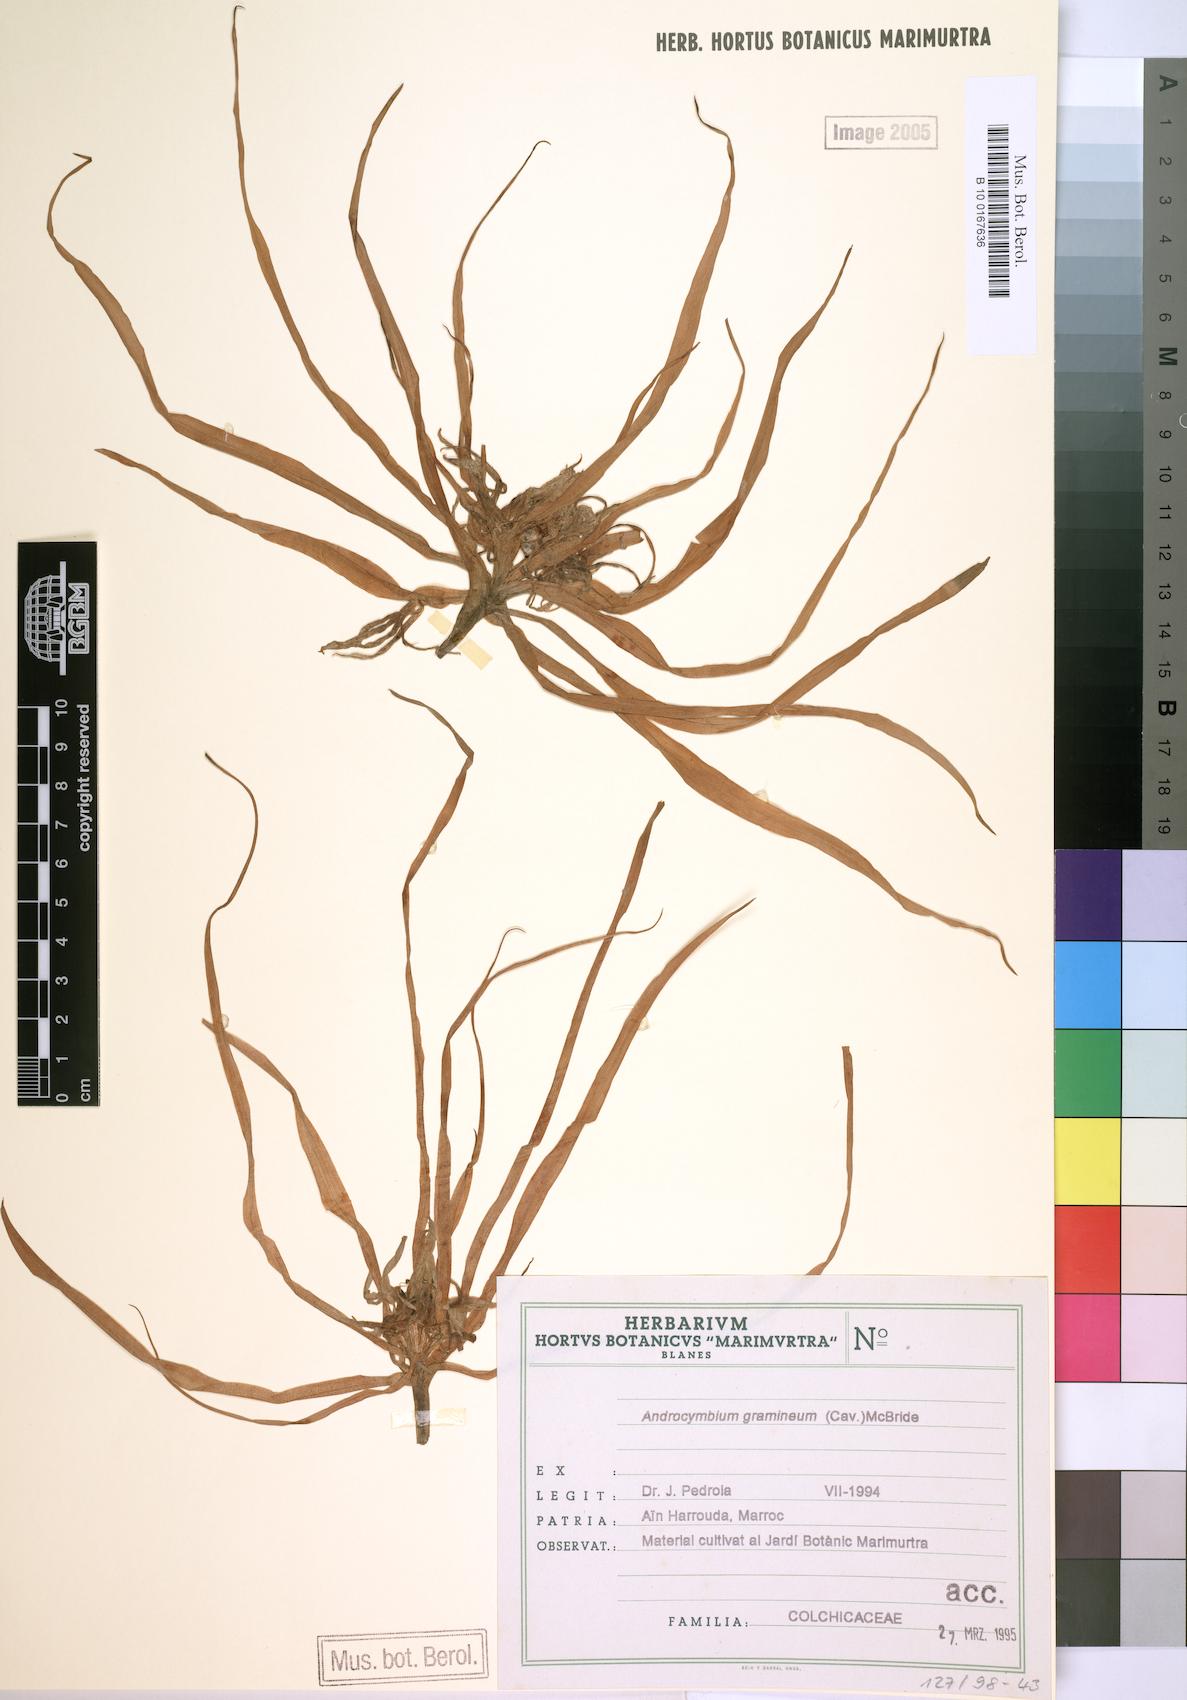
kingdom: Plantae
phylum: Tracheophyta
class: Liliopsida
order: Liliales
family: Colchicaceae
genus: Colchicum
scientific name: Colchicum gramineum
